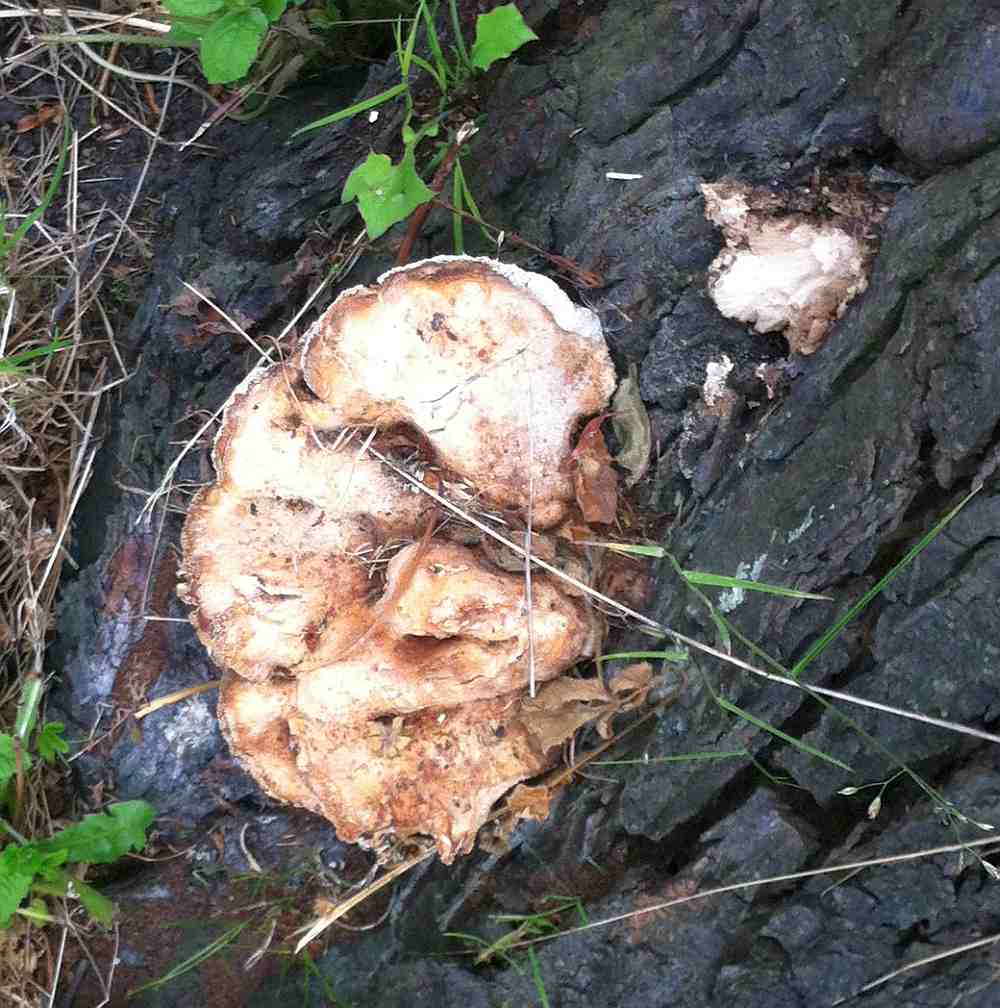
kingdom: Fungi
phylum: Basidiomycota
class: Agaricomycetes
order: Polyporales
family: Meripilaceae
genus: Meripilus
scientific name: Meripilus giganteus
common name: kæmpeporesvamp
